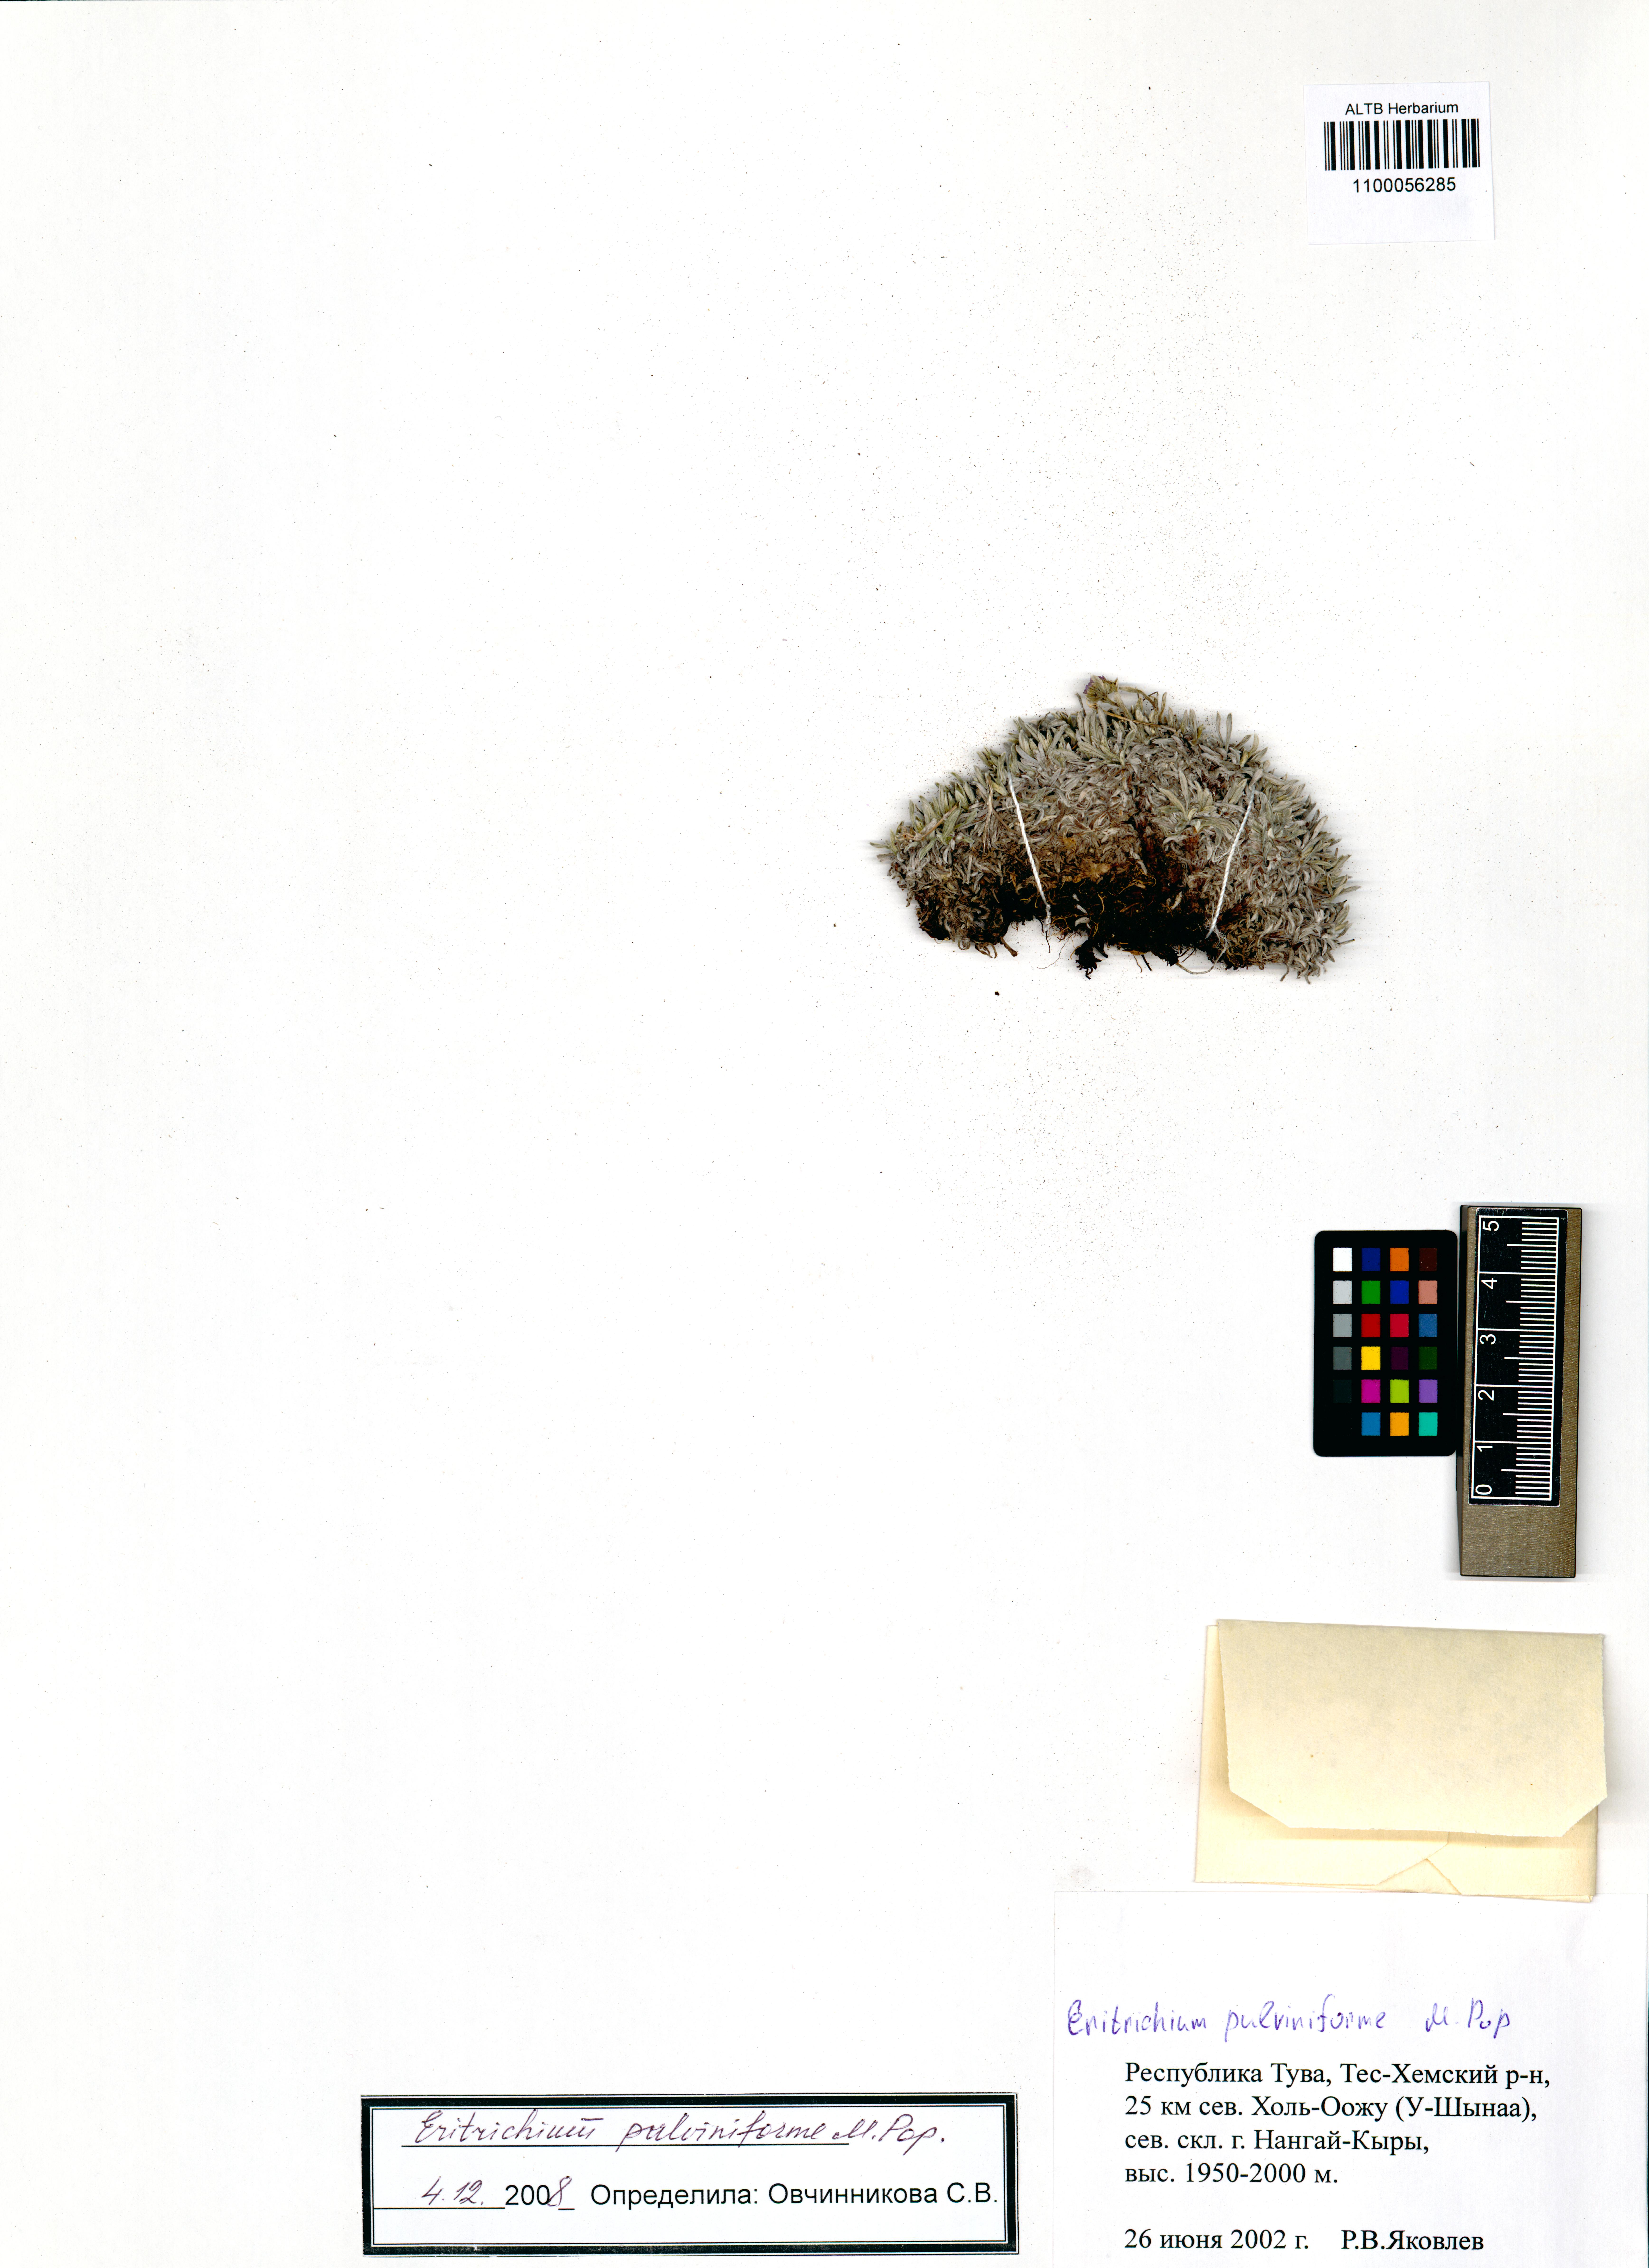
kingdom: Plantae
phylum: Tracheophyta
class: Magnoliopsida
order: Boraginales
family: Boraginaceae
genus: Eritrichium
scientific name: Eritrichium pauciflorum
